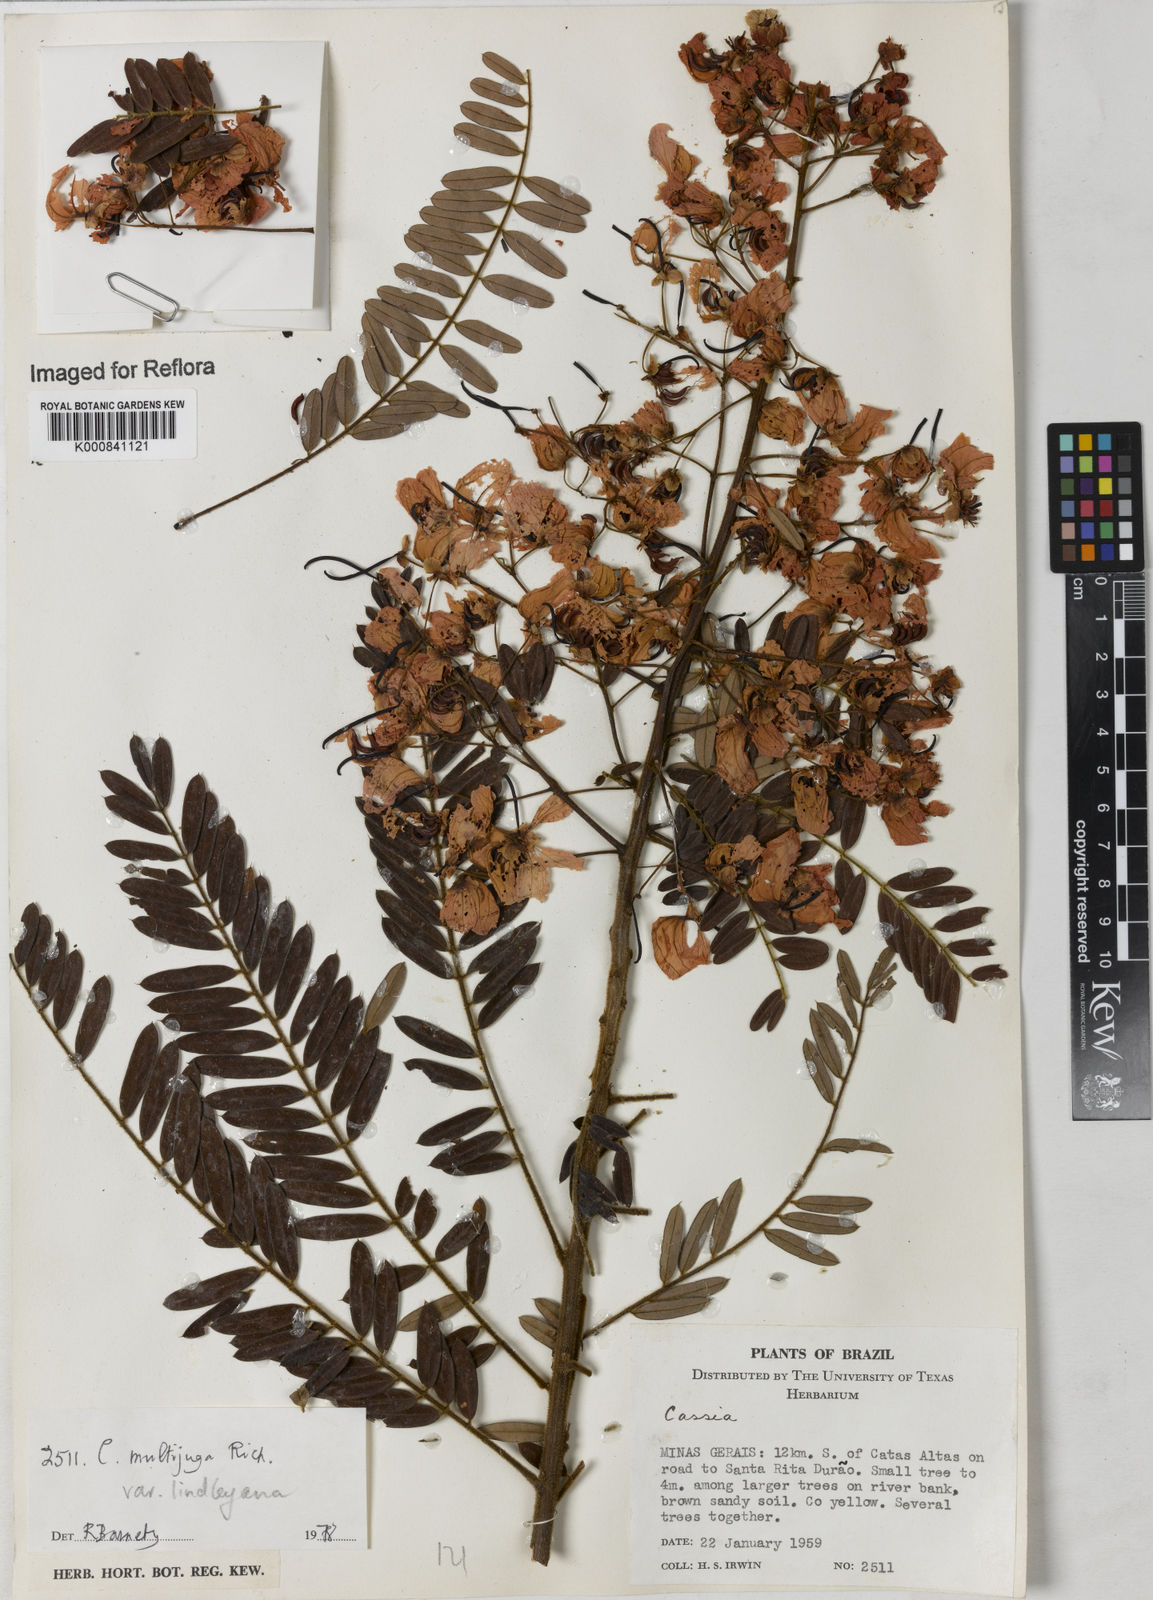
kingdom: Plantae
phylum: Tracheophyta
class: Magnoliopsida
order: Fabales
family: Fabaceae
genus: Senna
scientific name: Senna multijuga
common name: False sicklepod
